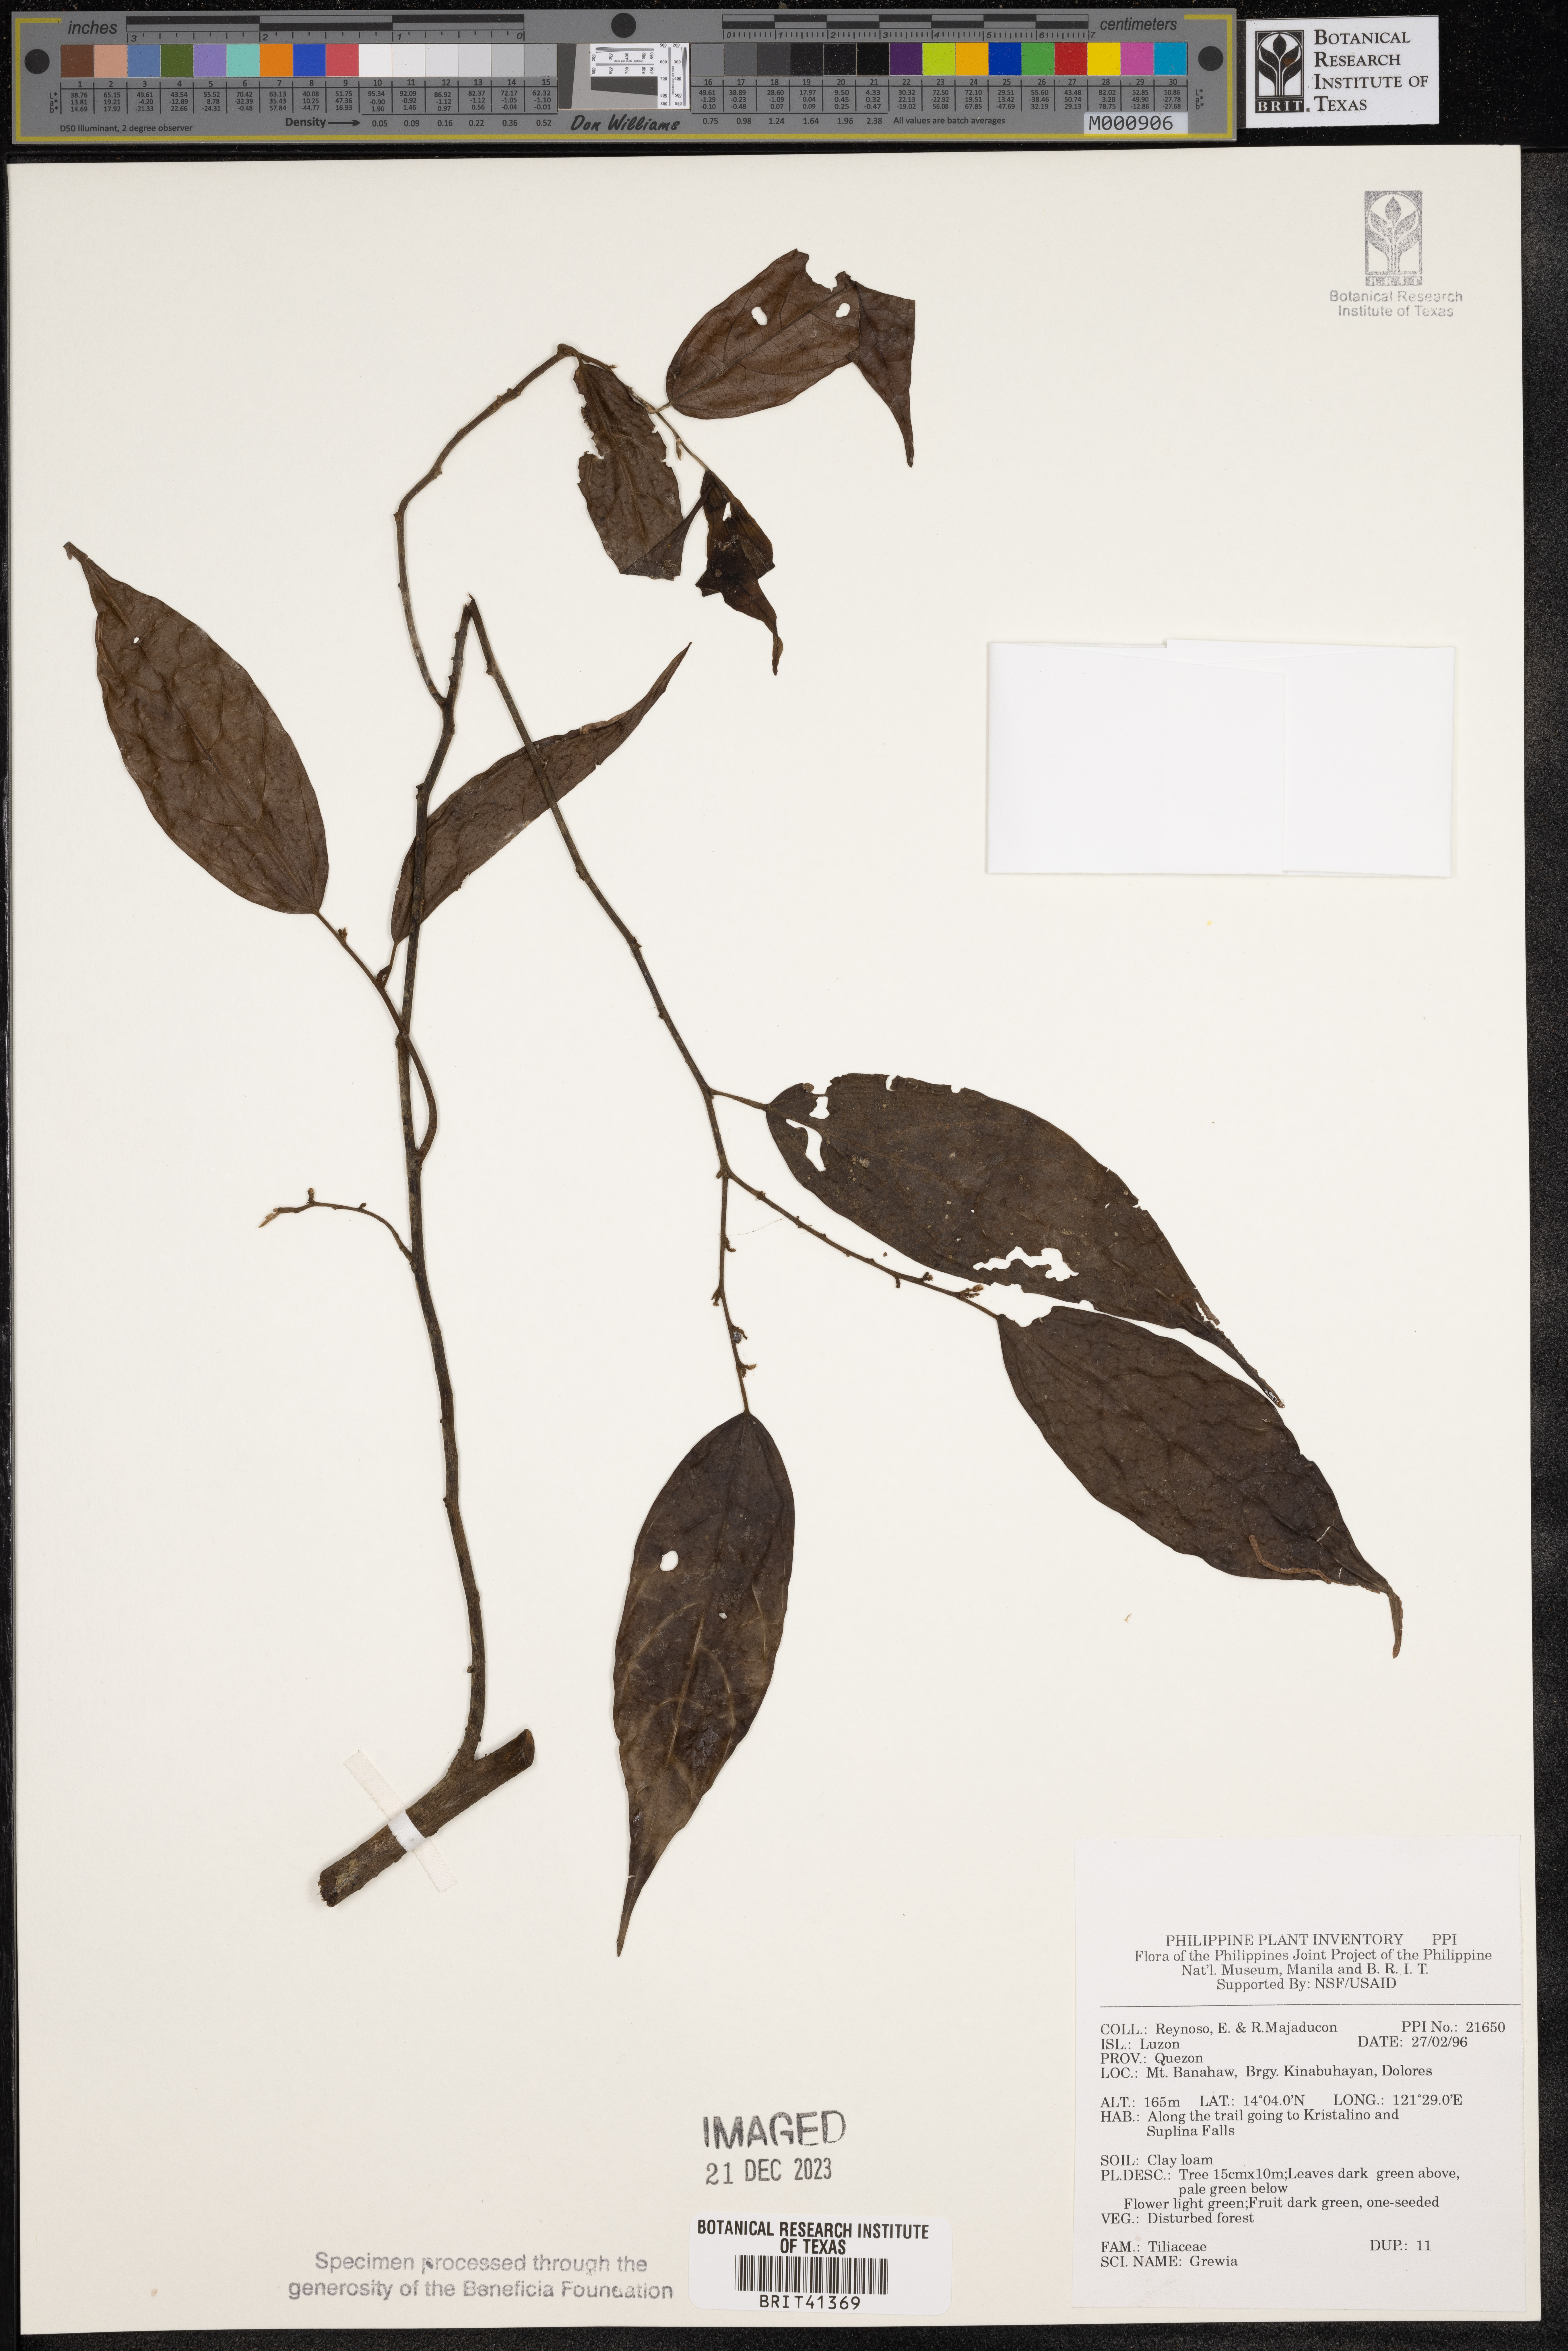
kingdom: Plantae
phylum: Tracheophyta
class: Magnoliopsida
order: Malvales
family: Malvaceae
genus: Grewia
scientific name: Grewia
